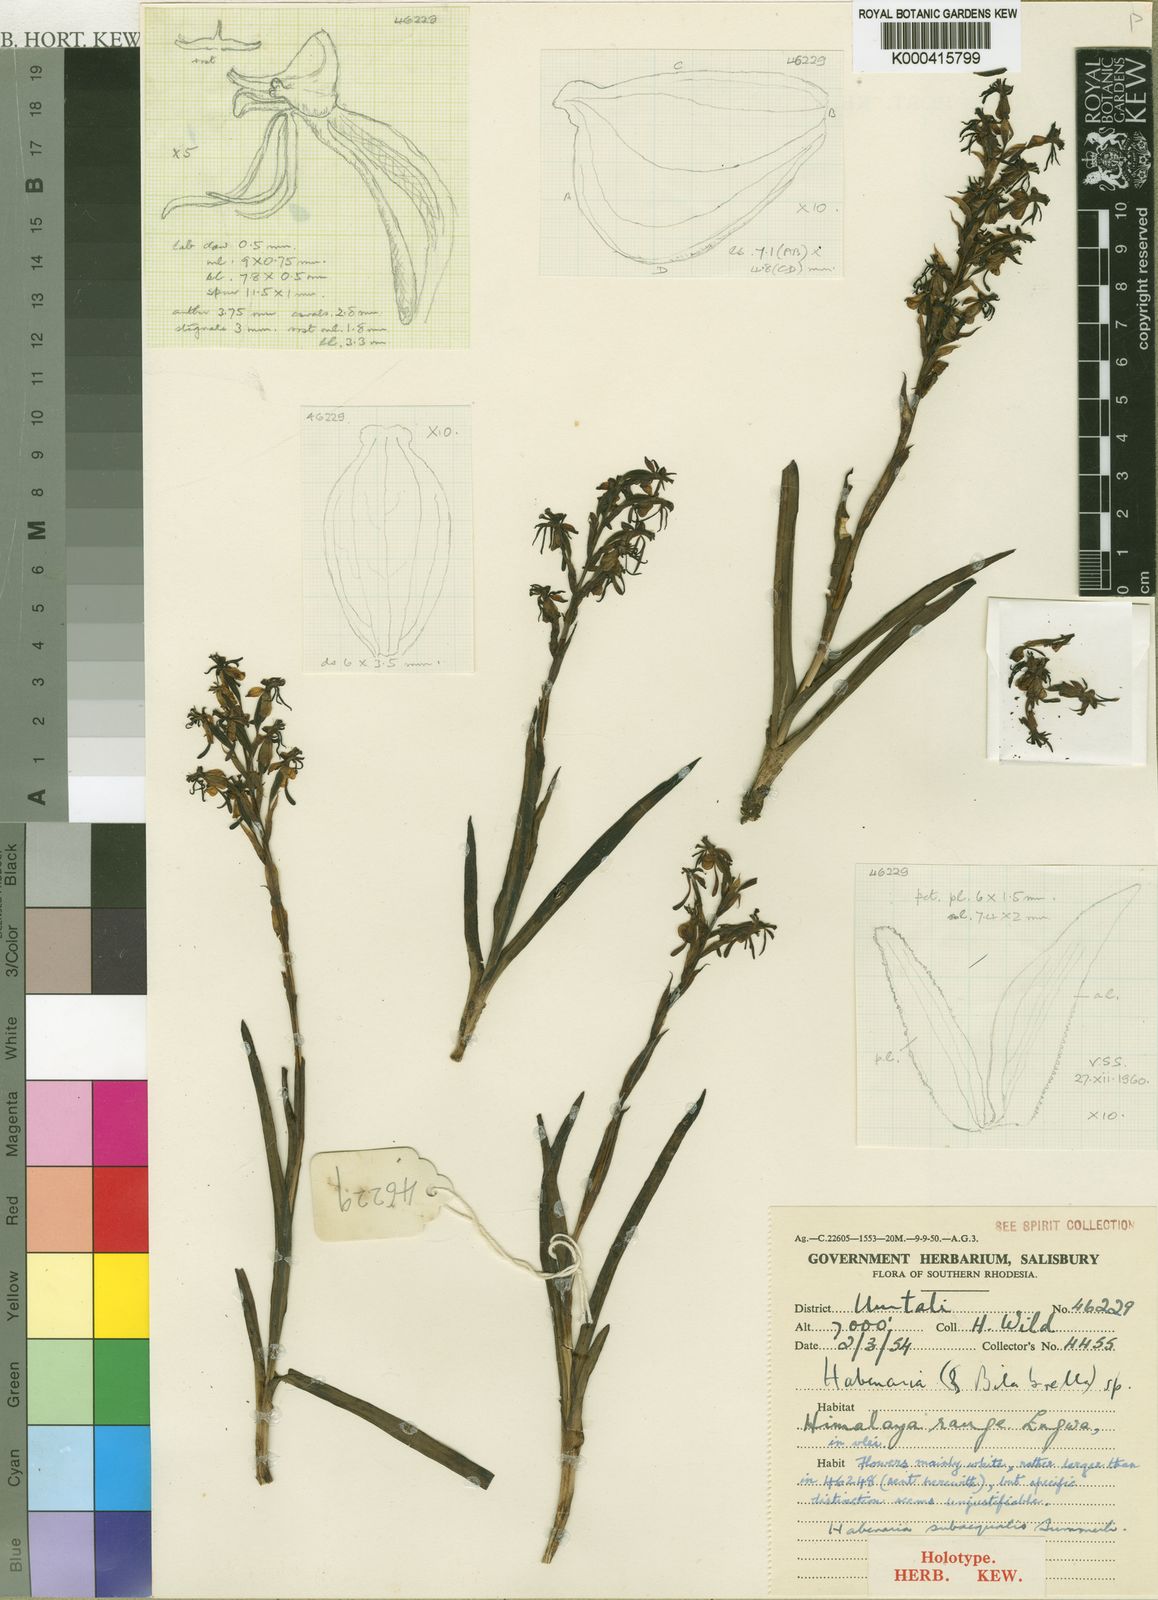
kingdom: Plantae
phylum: Tracheophyta
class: Liliopsida
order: Asparagales
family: Orchidaceae
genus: Habenaria
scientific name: Habenaria subaequalis
